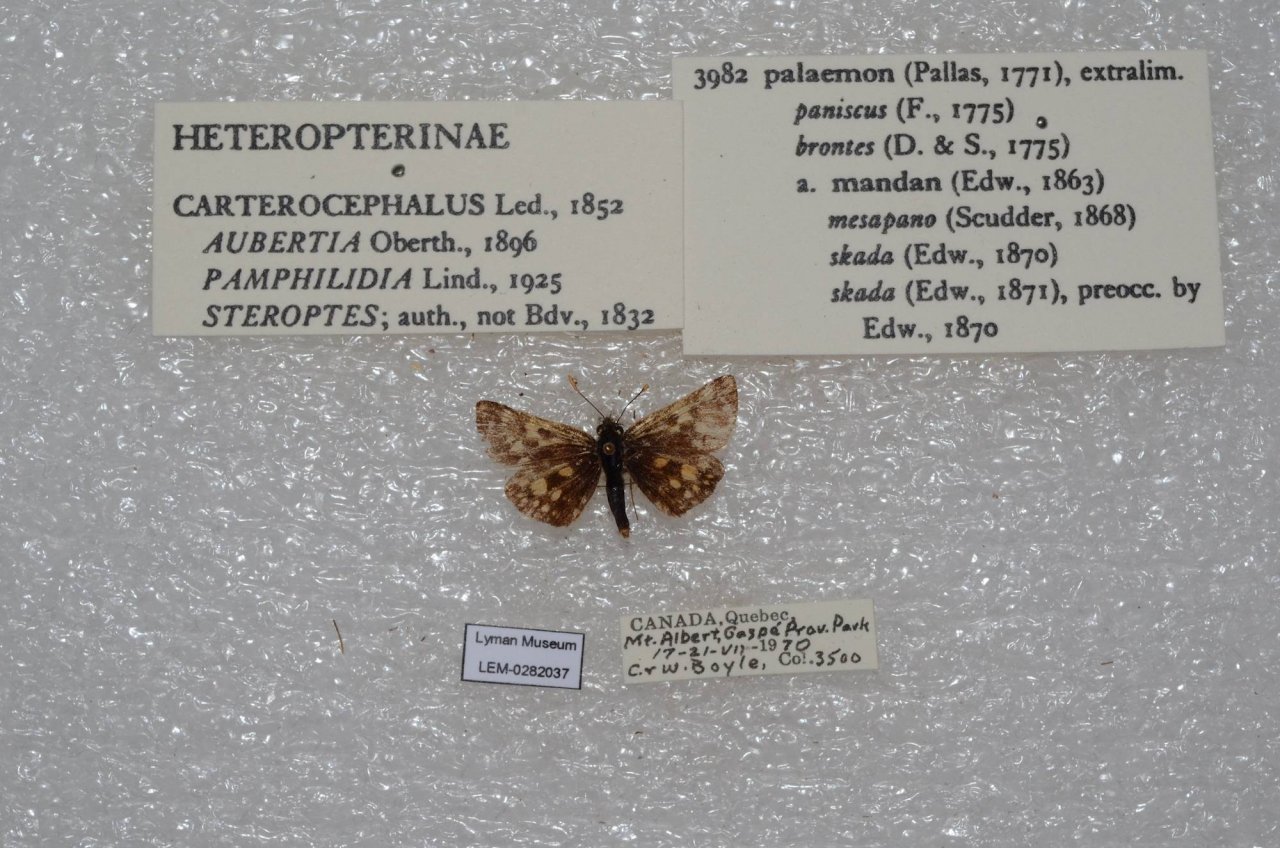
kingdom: Animalia
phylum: Arthropoda
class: Insecta
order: Lepidoptera
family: Hesperiidae
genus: Carterocephalus
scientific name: Carterocephalus palaemon
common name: Chequered Skipper
